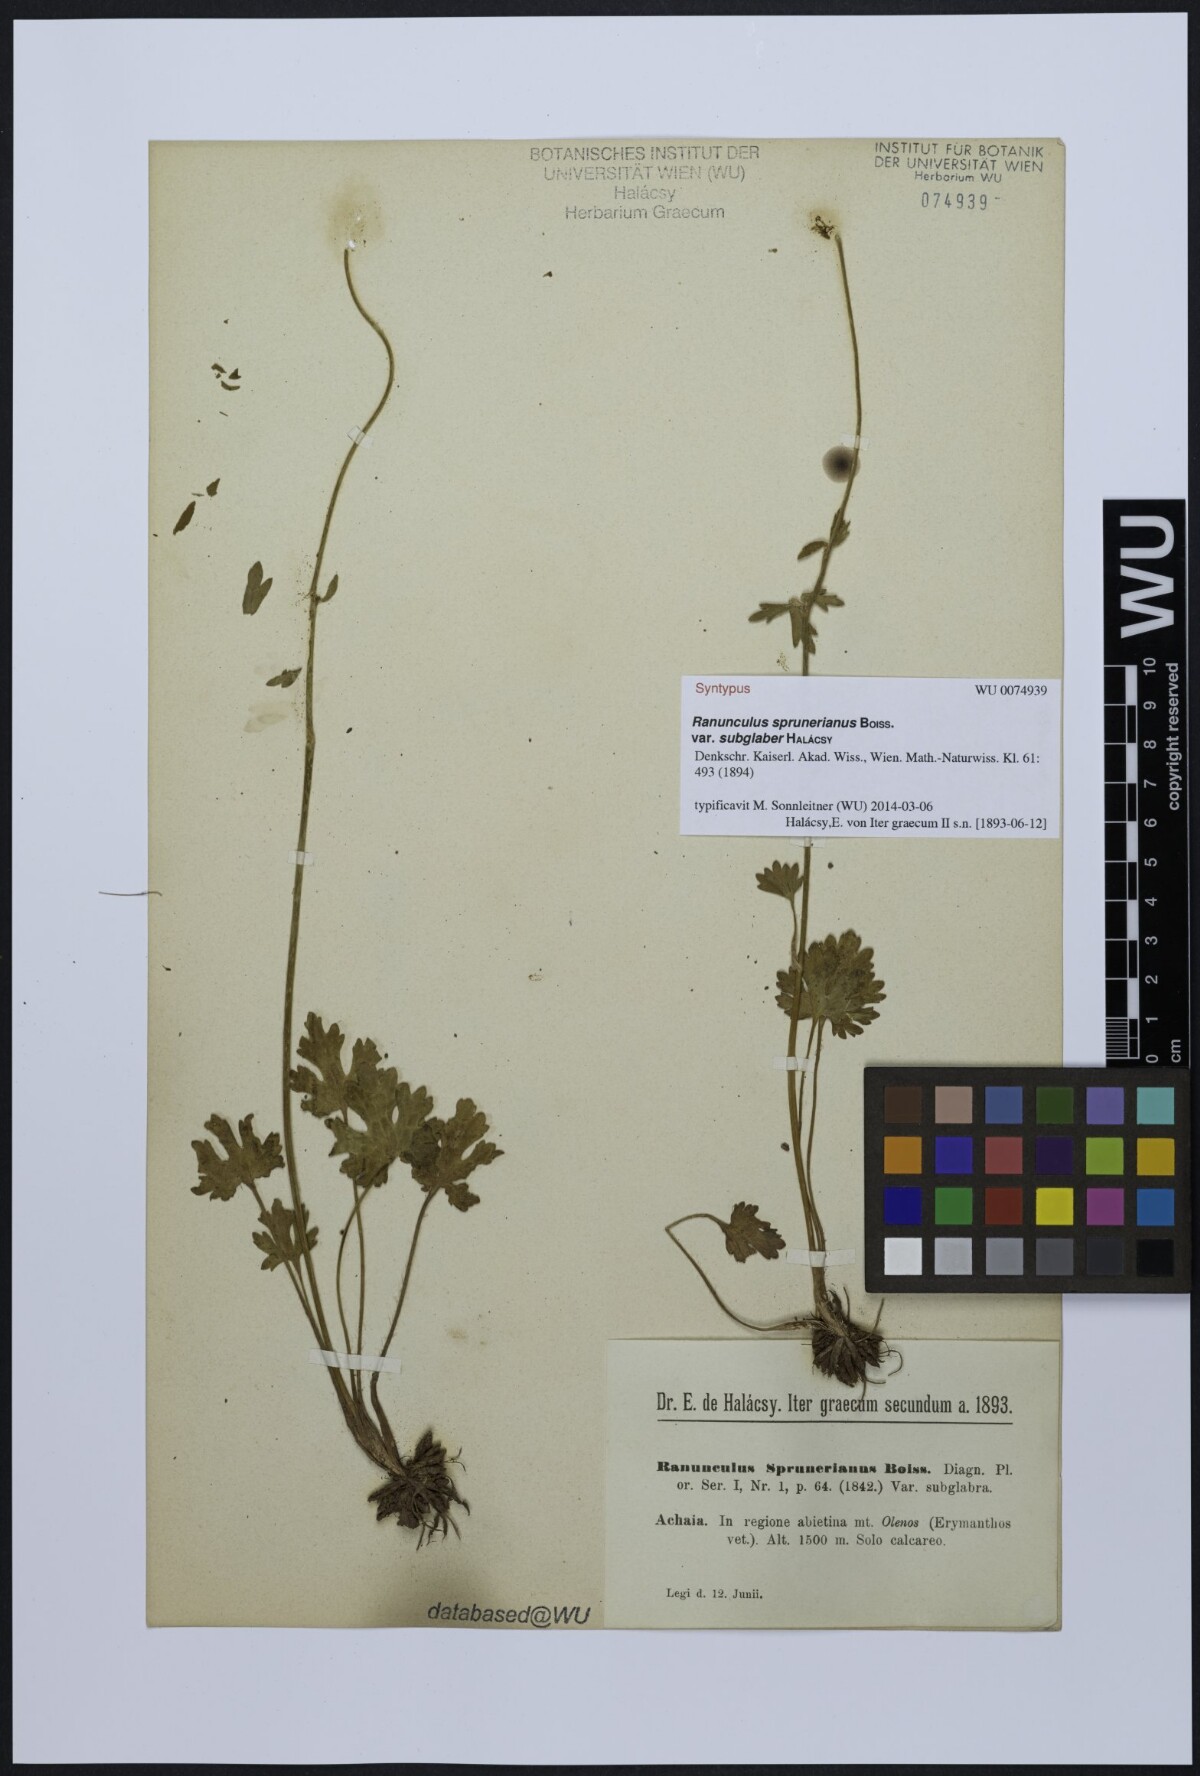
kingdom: Plantae
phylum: Tracheophyta
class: Magnoliopsida
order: Ranunculales
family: Ranunculaceae
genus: Ranunculus
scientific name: Ranunculus sprunerianus
